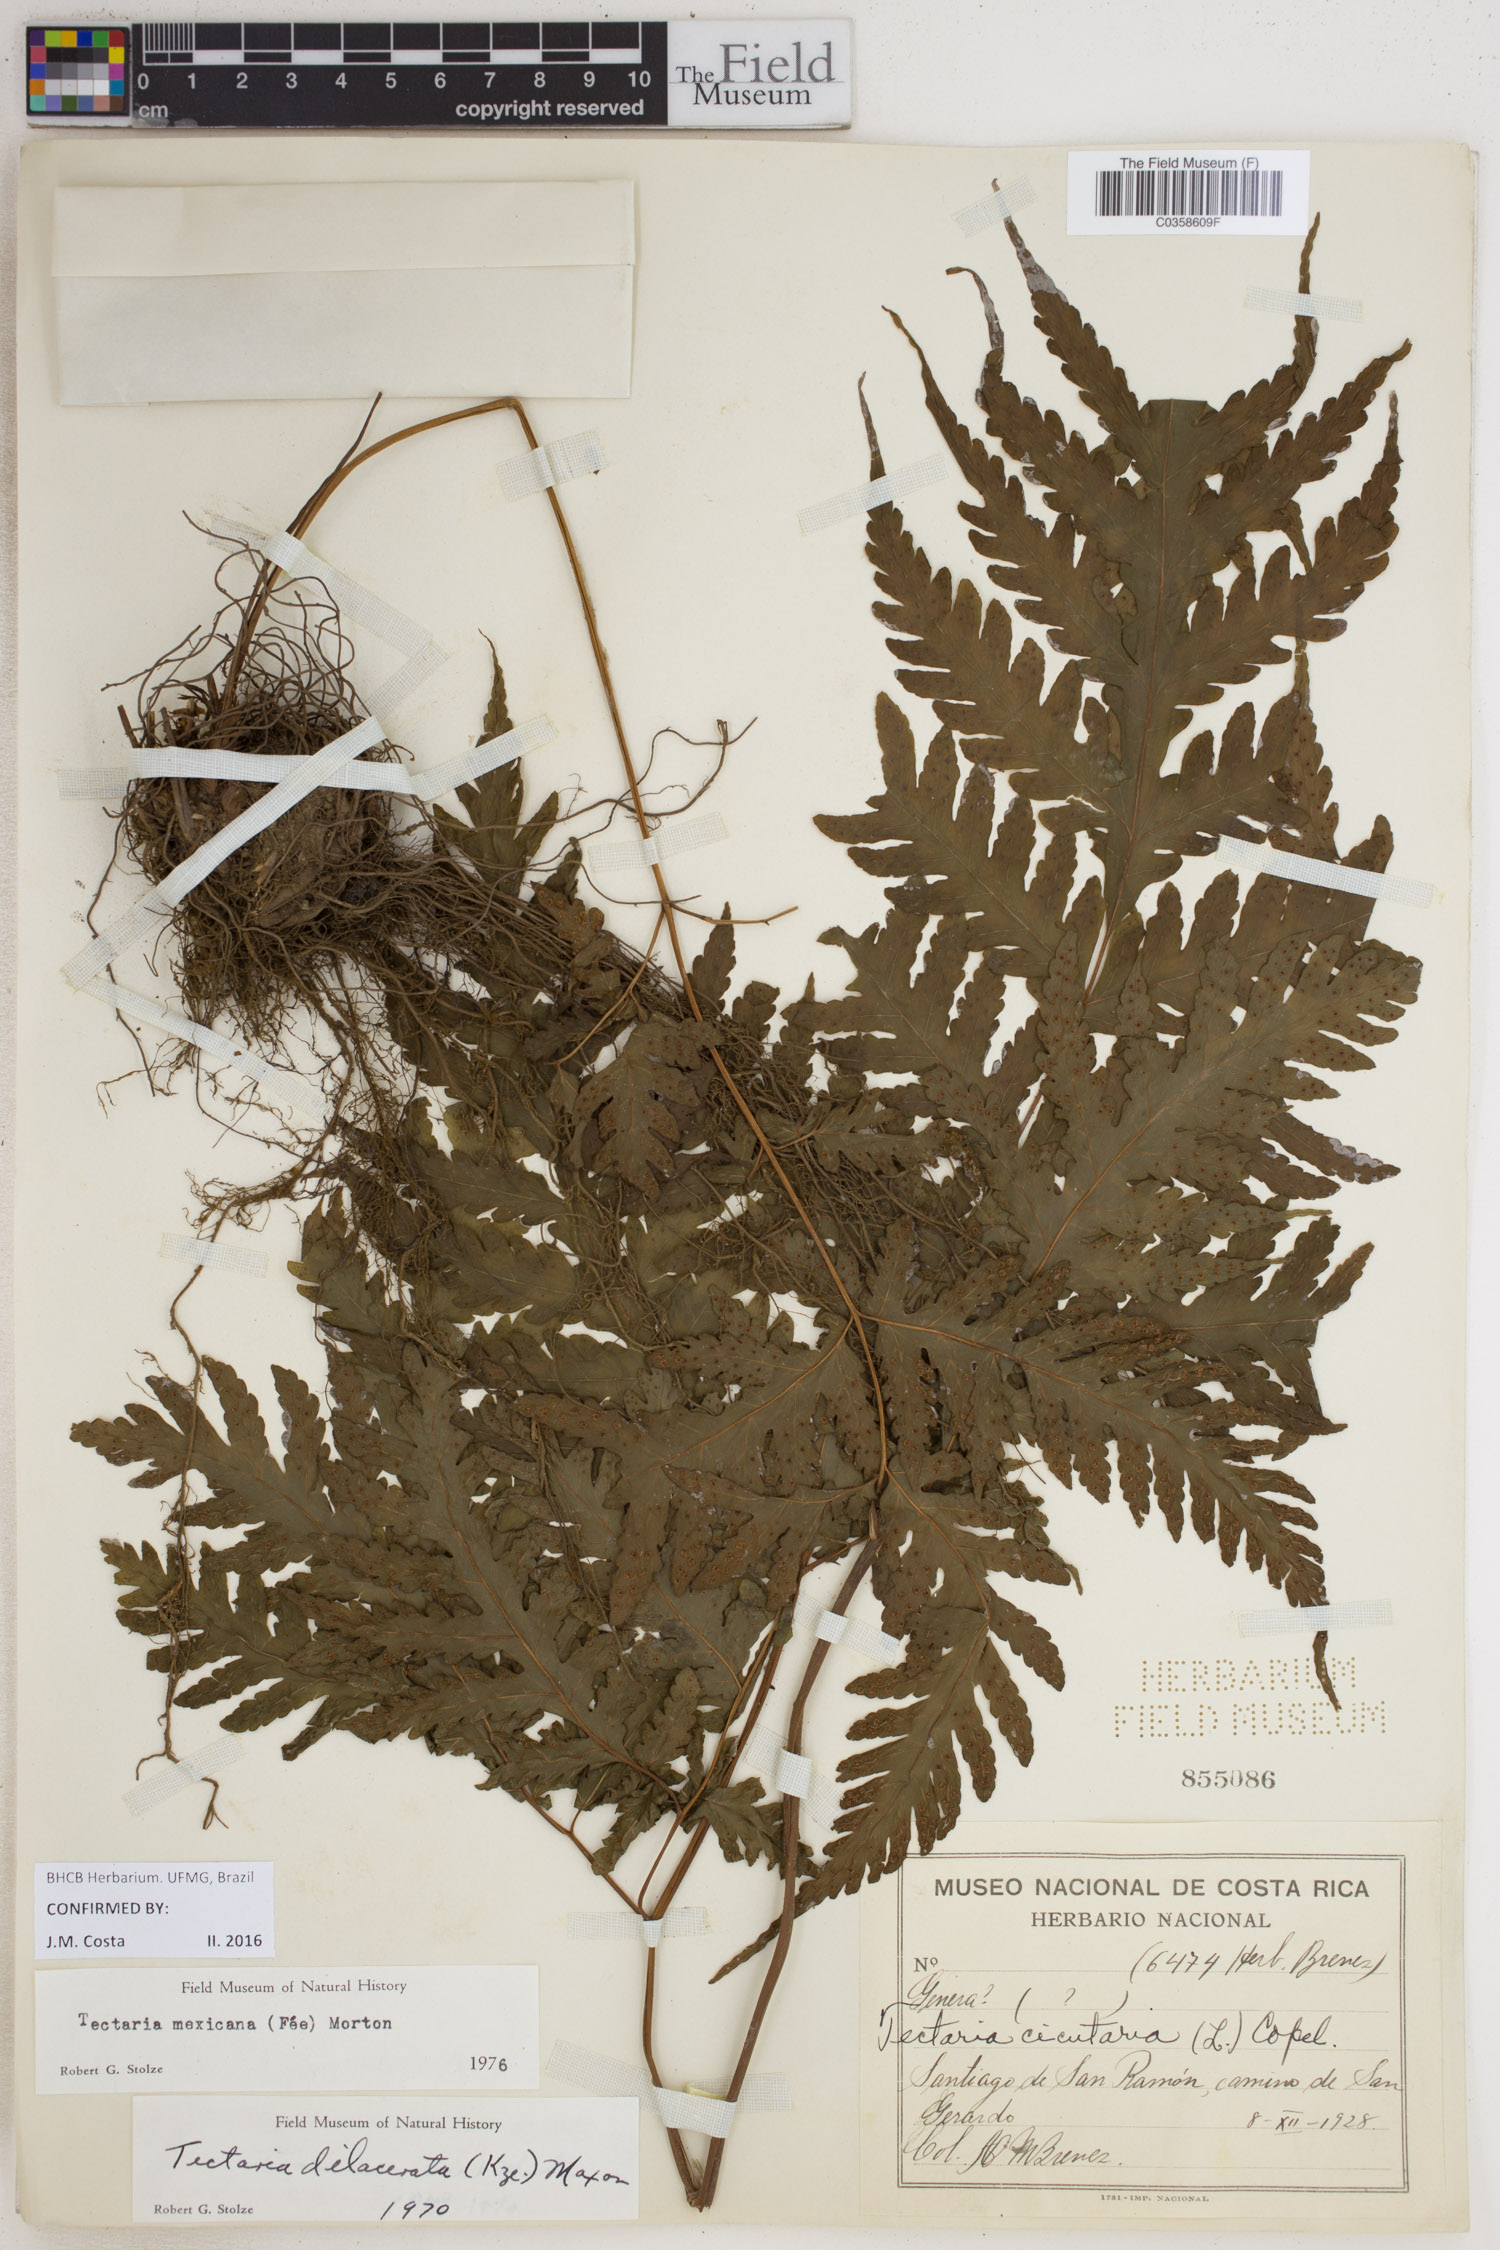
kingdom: Plantae
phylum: Tracheophyta
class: Polypodiopsida
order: Polypodiales
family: Tectariaceae
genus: Tectaria
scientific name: Tectaria mexicana
